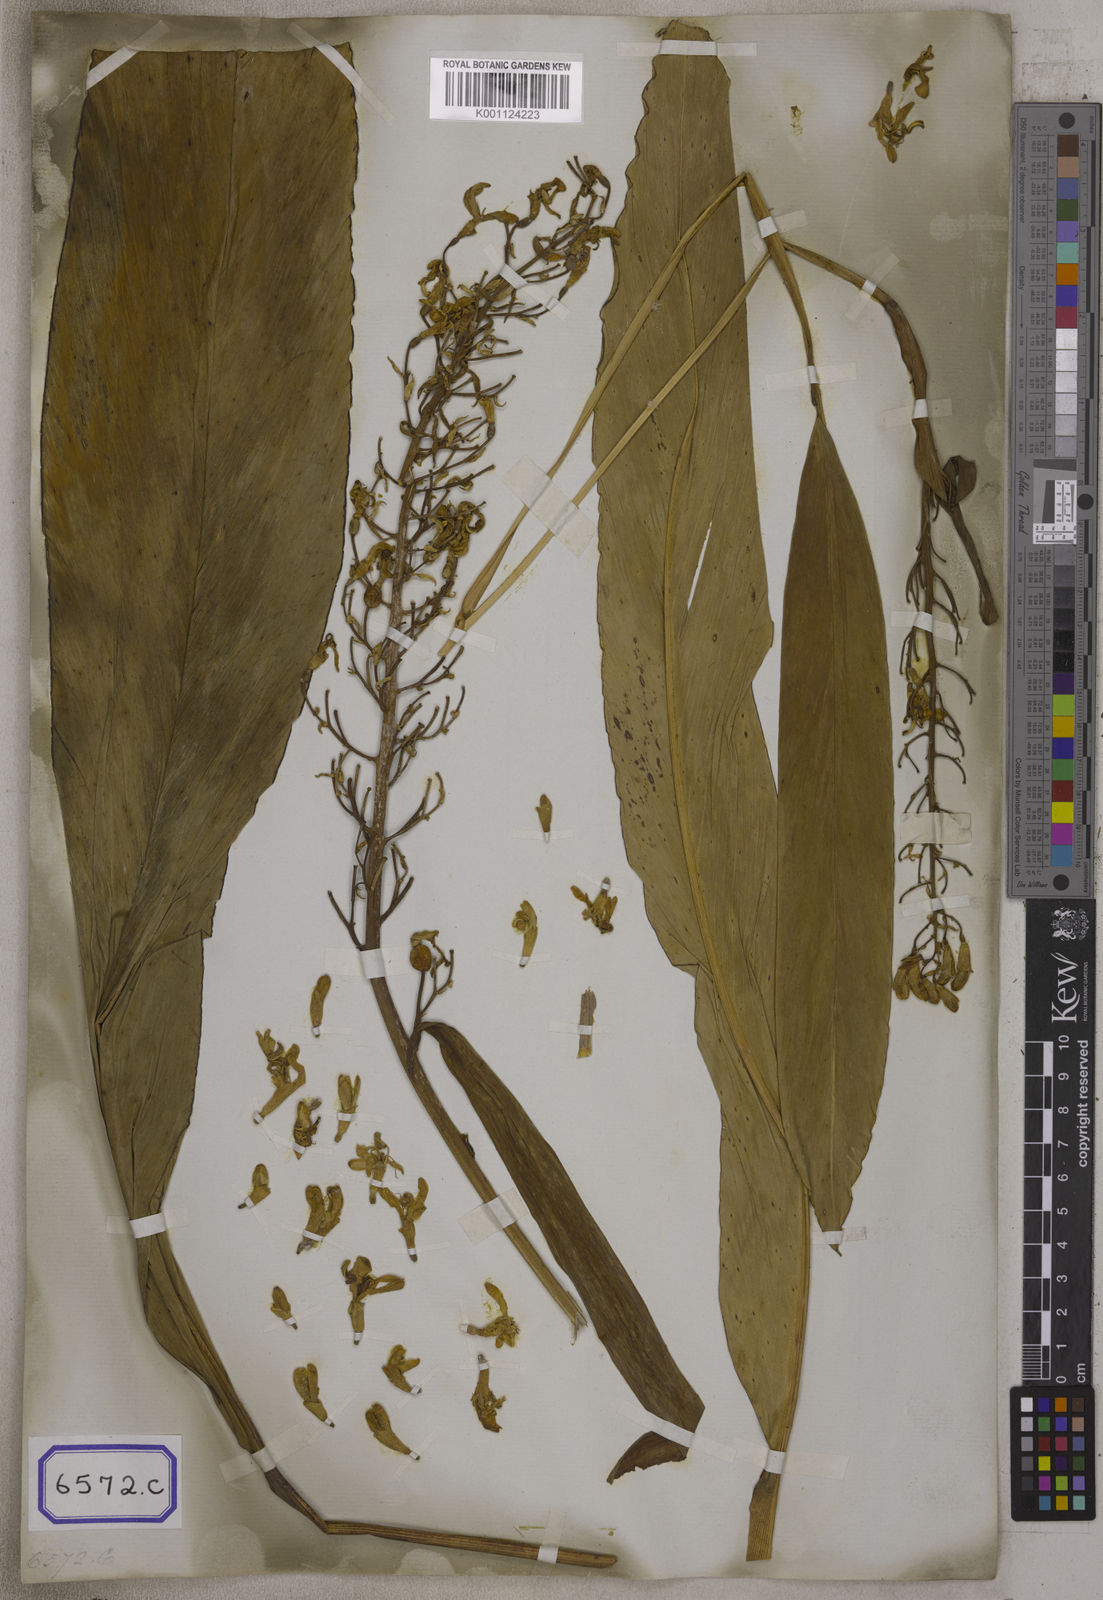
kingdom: Plantae
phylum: Tracheophyta
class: Liliopsida
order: Zingiberales
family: Zingiberaceae
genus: Alpinia
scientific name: Alpinia galanga
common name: Siamese-ginger
